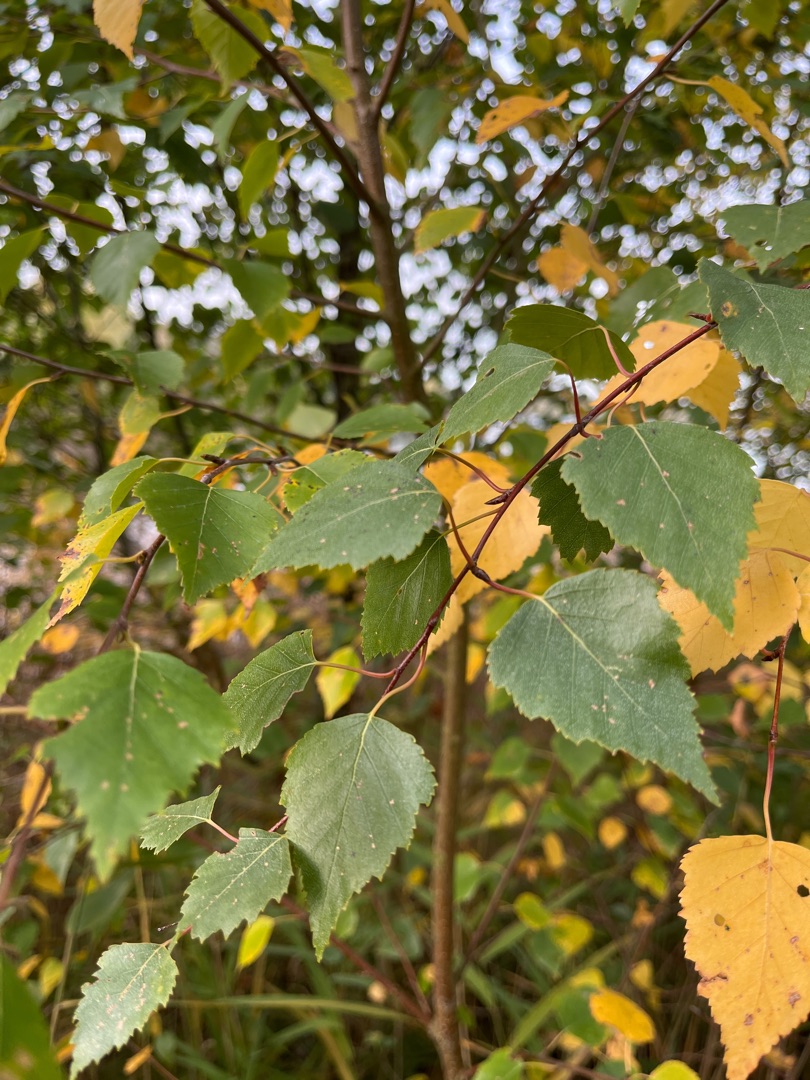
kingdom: Plantae
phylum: Tracheophyta
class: Magnoliopsida
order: Fagales
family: Betulaceae
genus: Betula
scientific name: Betula pendula
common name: Vorte-birk
